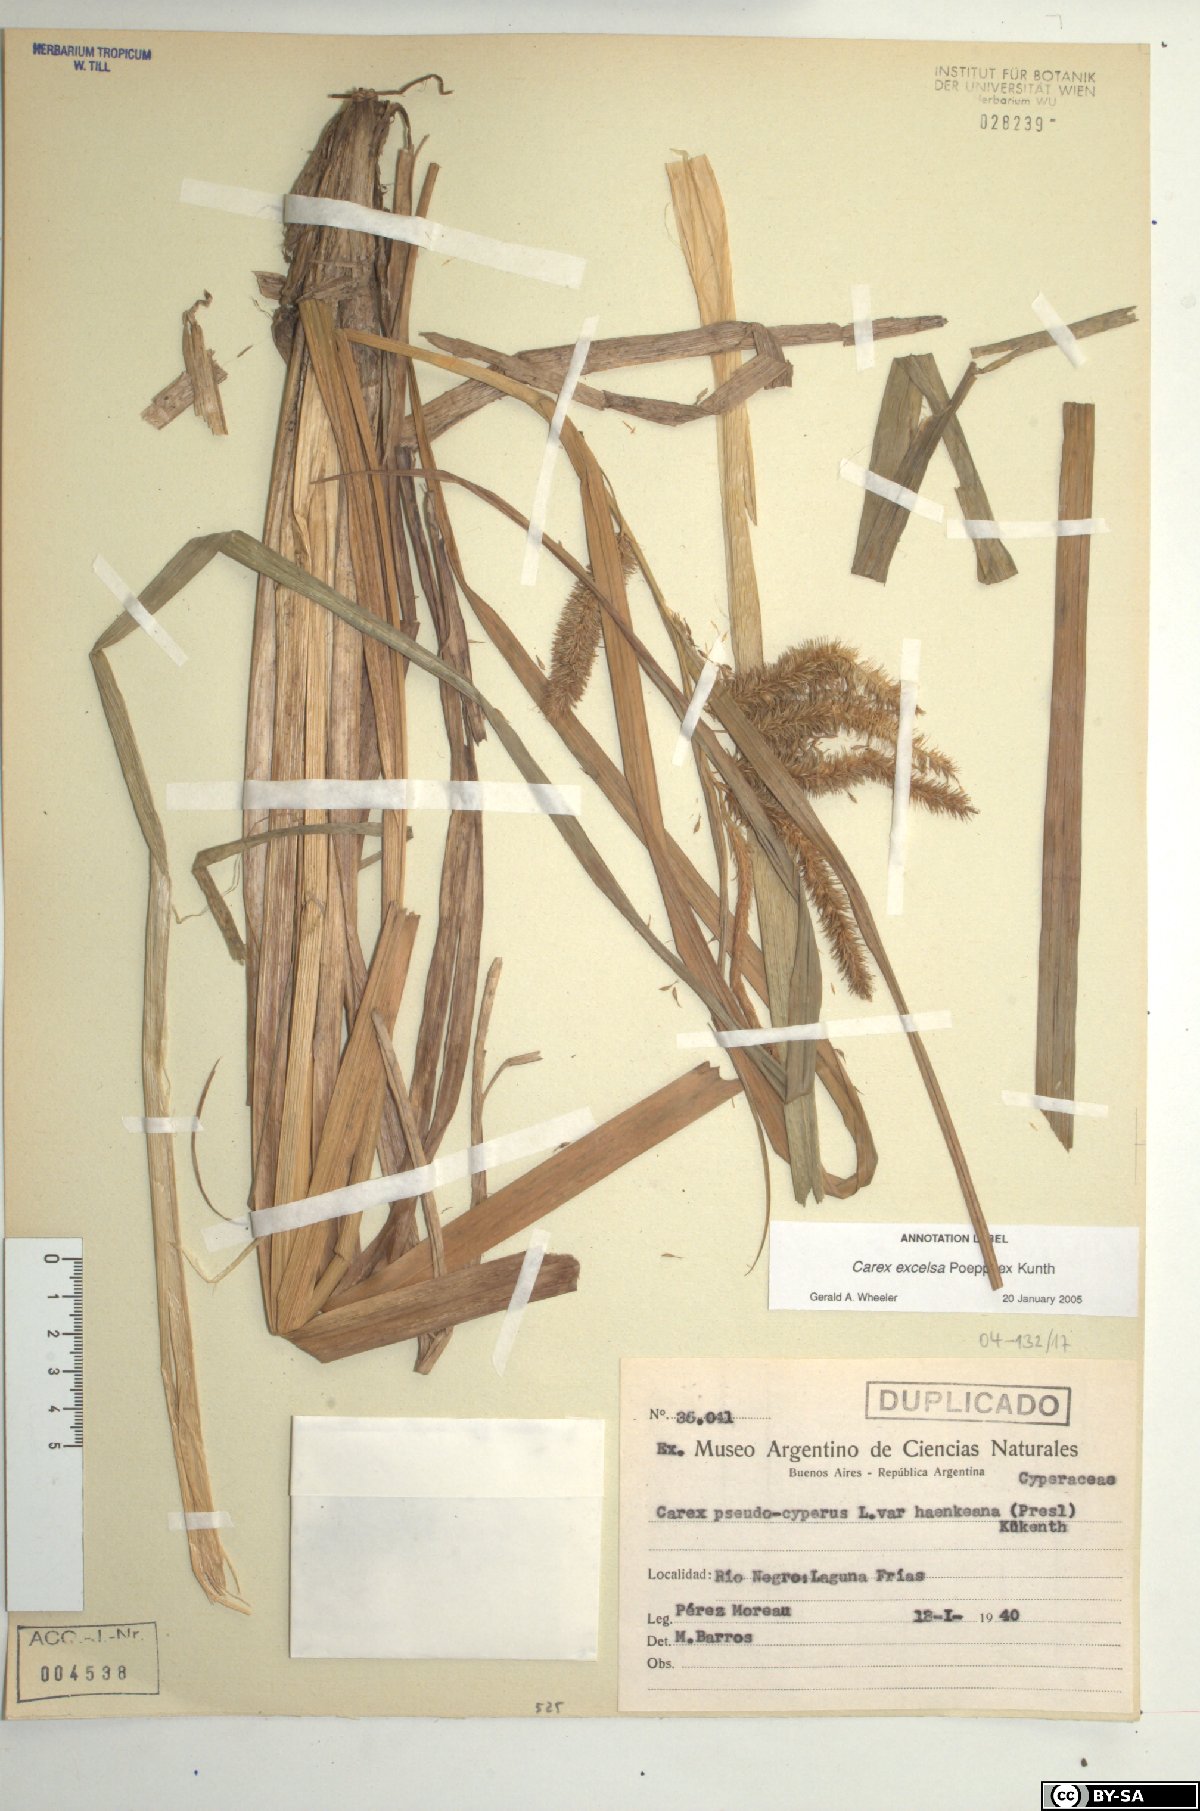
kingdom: Plantae
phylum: Tracheophyta
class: Liliopsida
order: Poales
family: Cyperaceae
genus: Carex
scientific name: Carex excelsa
